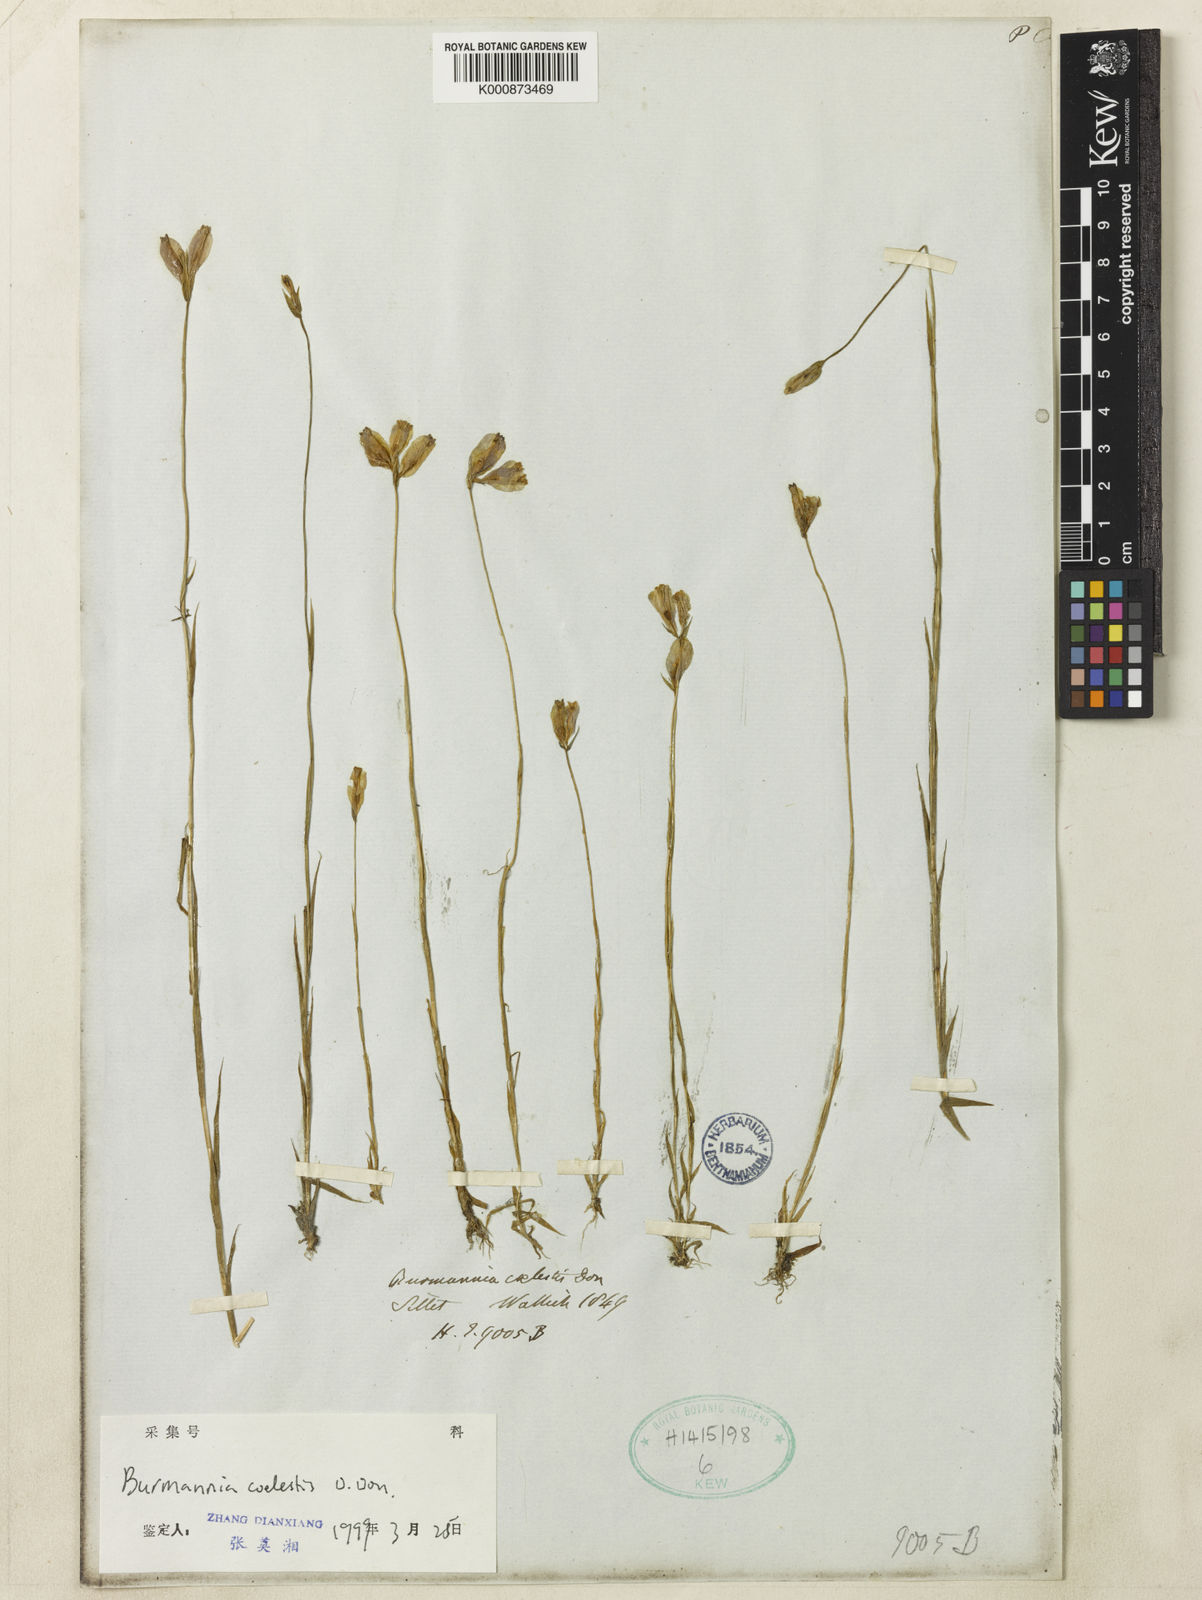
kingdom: Plantae
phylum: Tracheophyta
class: Liliopsida
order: Dioscoreales
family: Burmanniaceae
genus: Burmannia
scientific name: Burmannia coelestis
